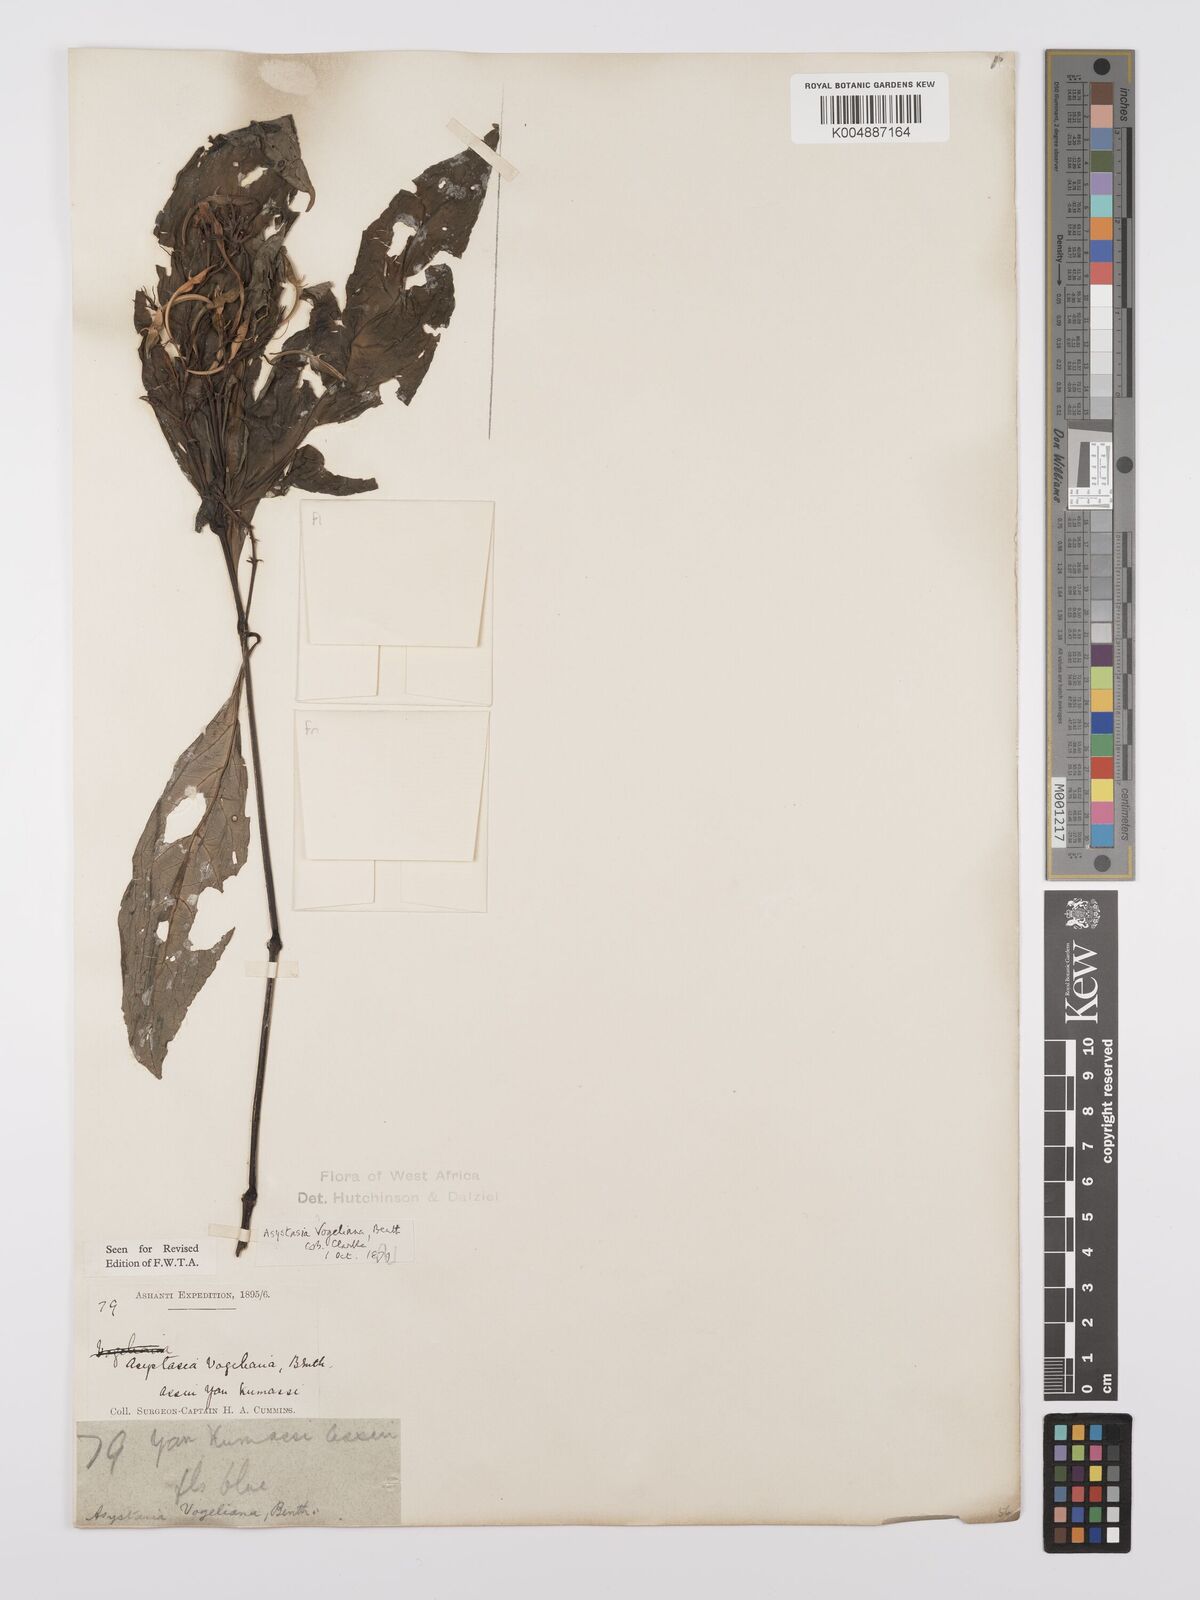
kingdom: Plantae
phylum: Tracheophyta
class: Magnoliopsida
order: Lamiales
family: Acanthaceae
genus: Asystasia
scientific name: Asystasia vogeliana
